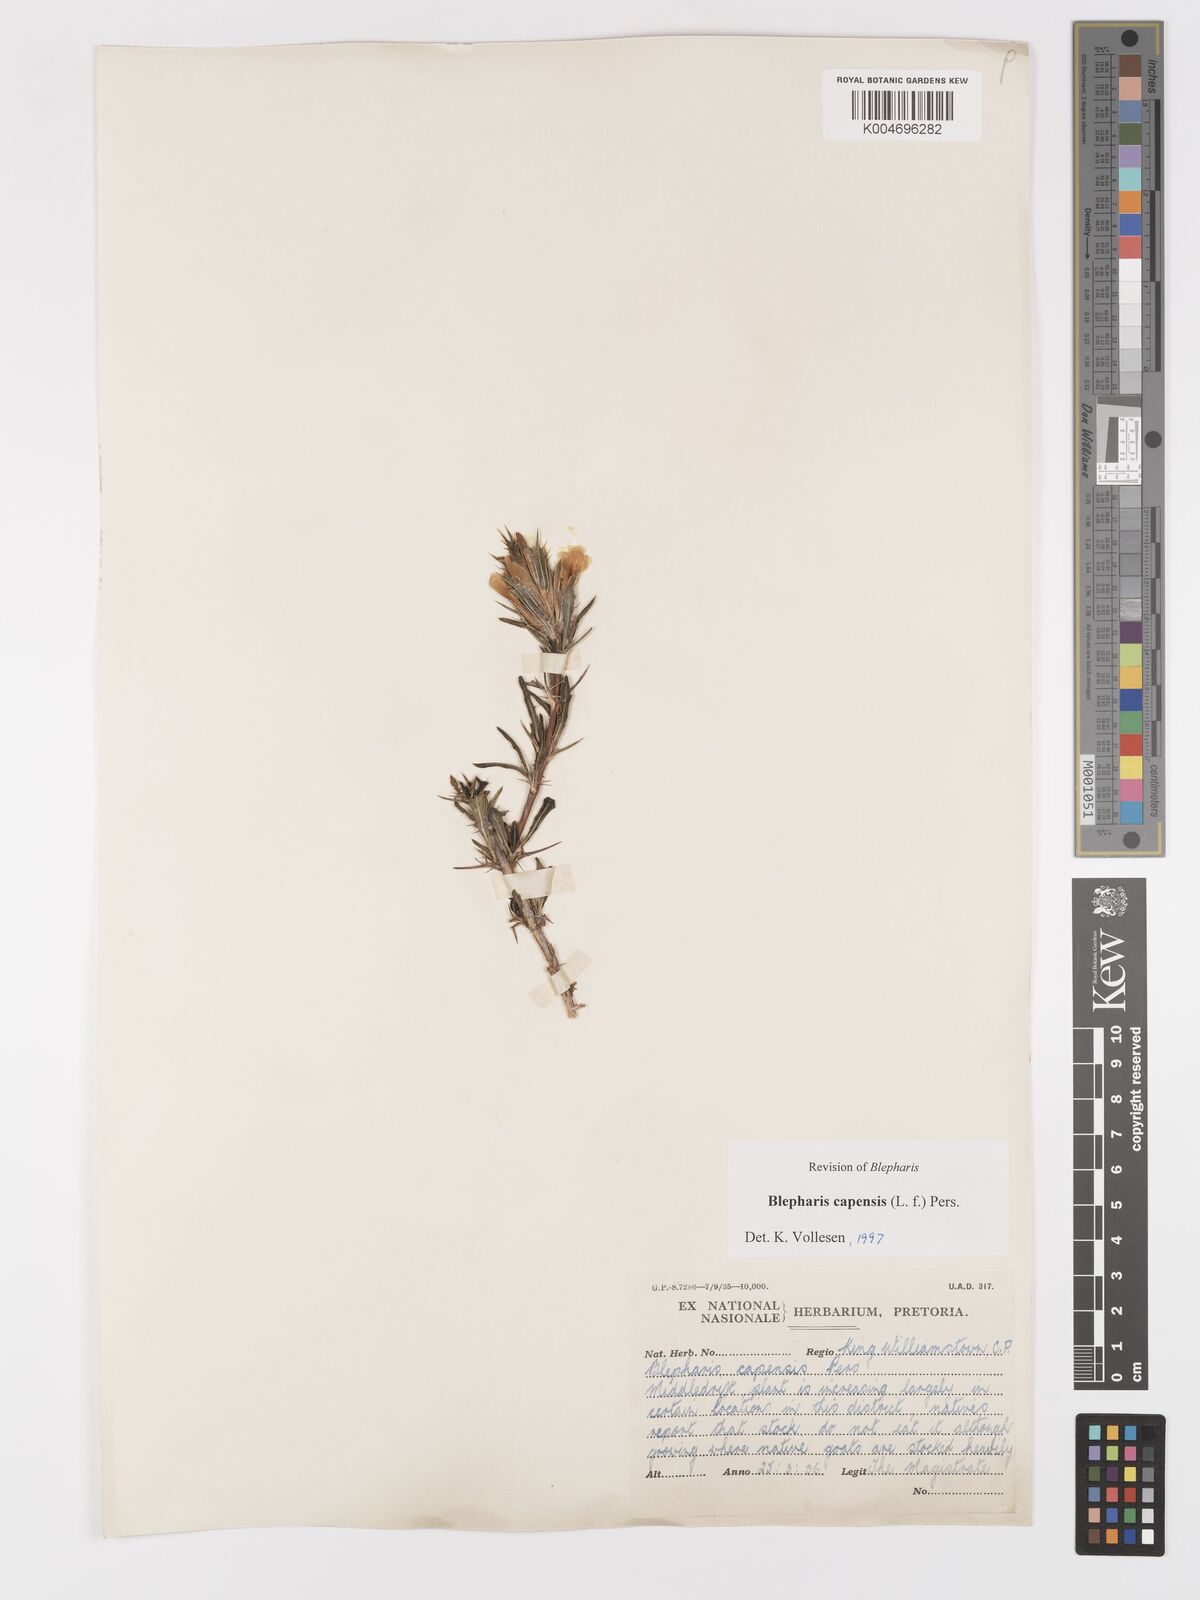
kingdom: Plantae
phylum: Tracheophyta
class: Magnoliopsida
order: Lamiales
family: Acanthaceae
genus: Blepharis
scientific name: Blepharis capensis
